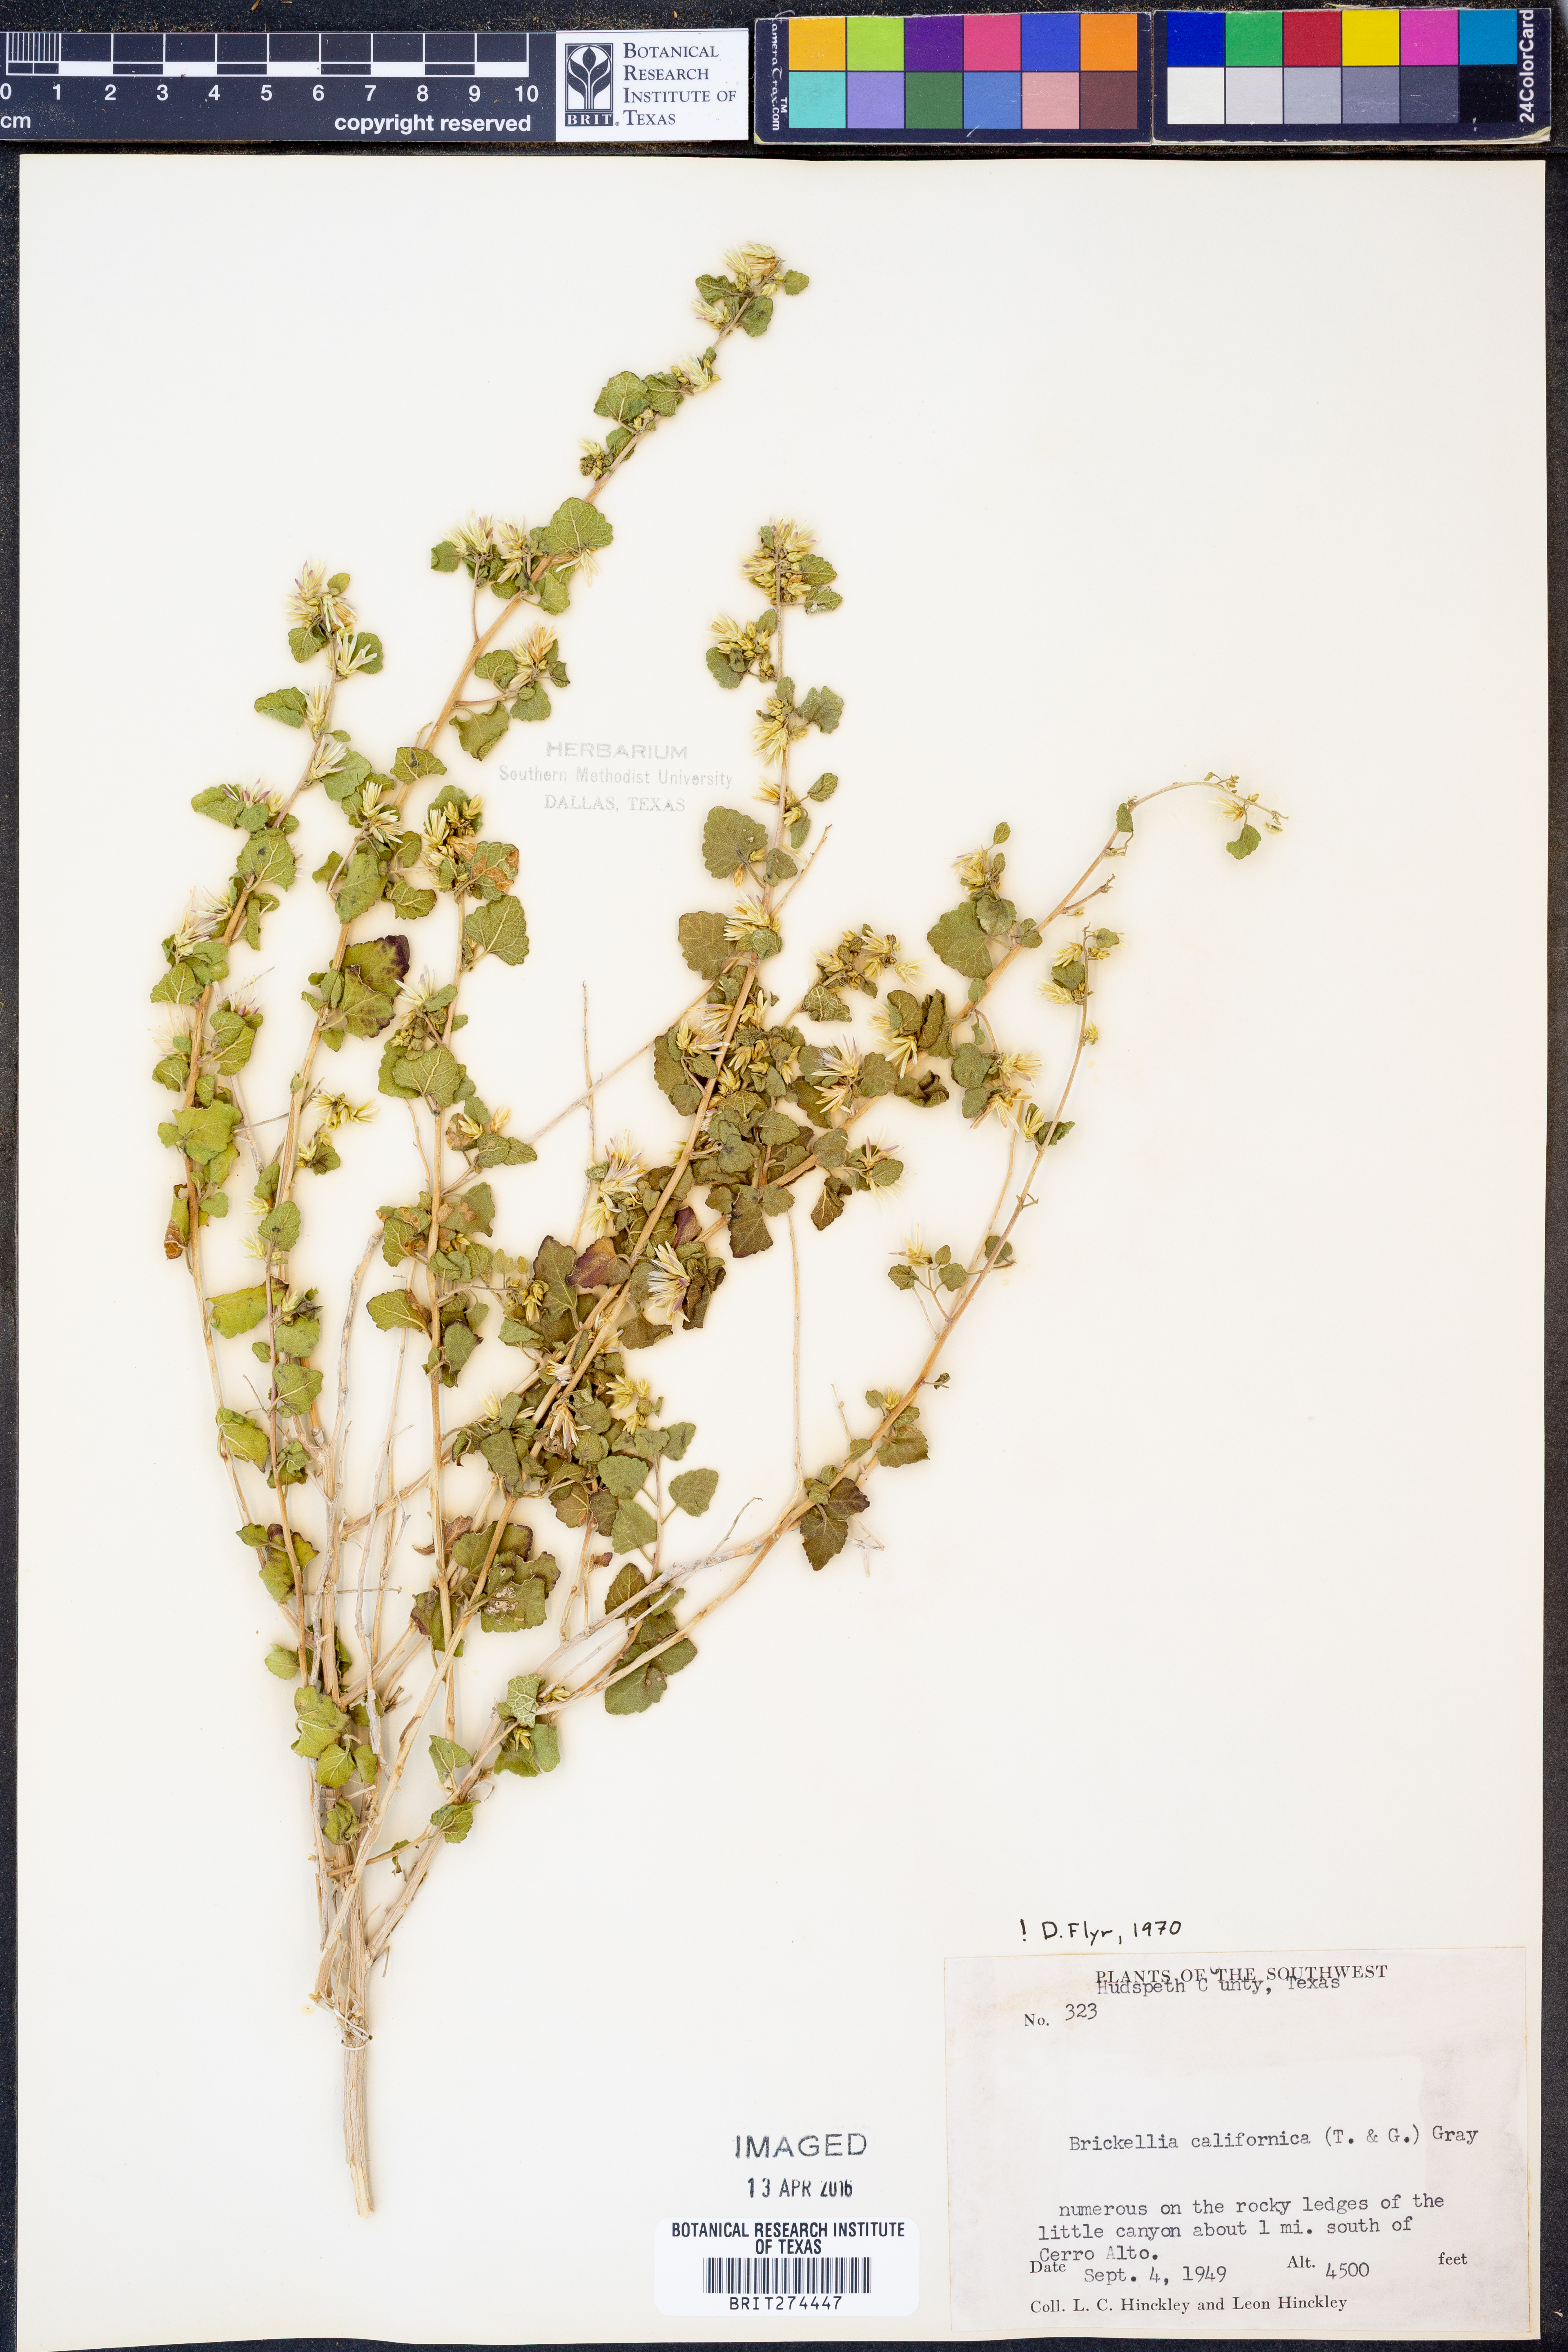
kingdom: Plantae
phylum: Tracheophyta
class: Magnoliopsida
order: Asterales
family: Asteraceae
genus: Brickellia
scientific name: Brickellia californica
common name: California brickellbush
